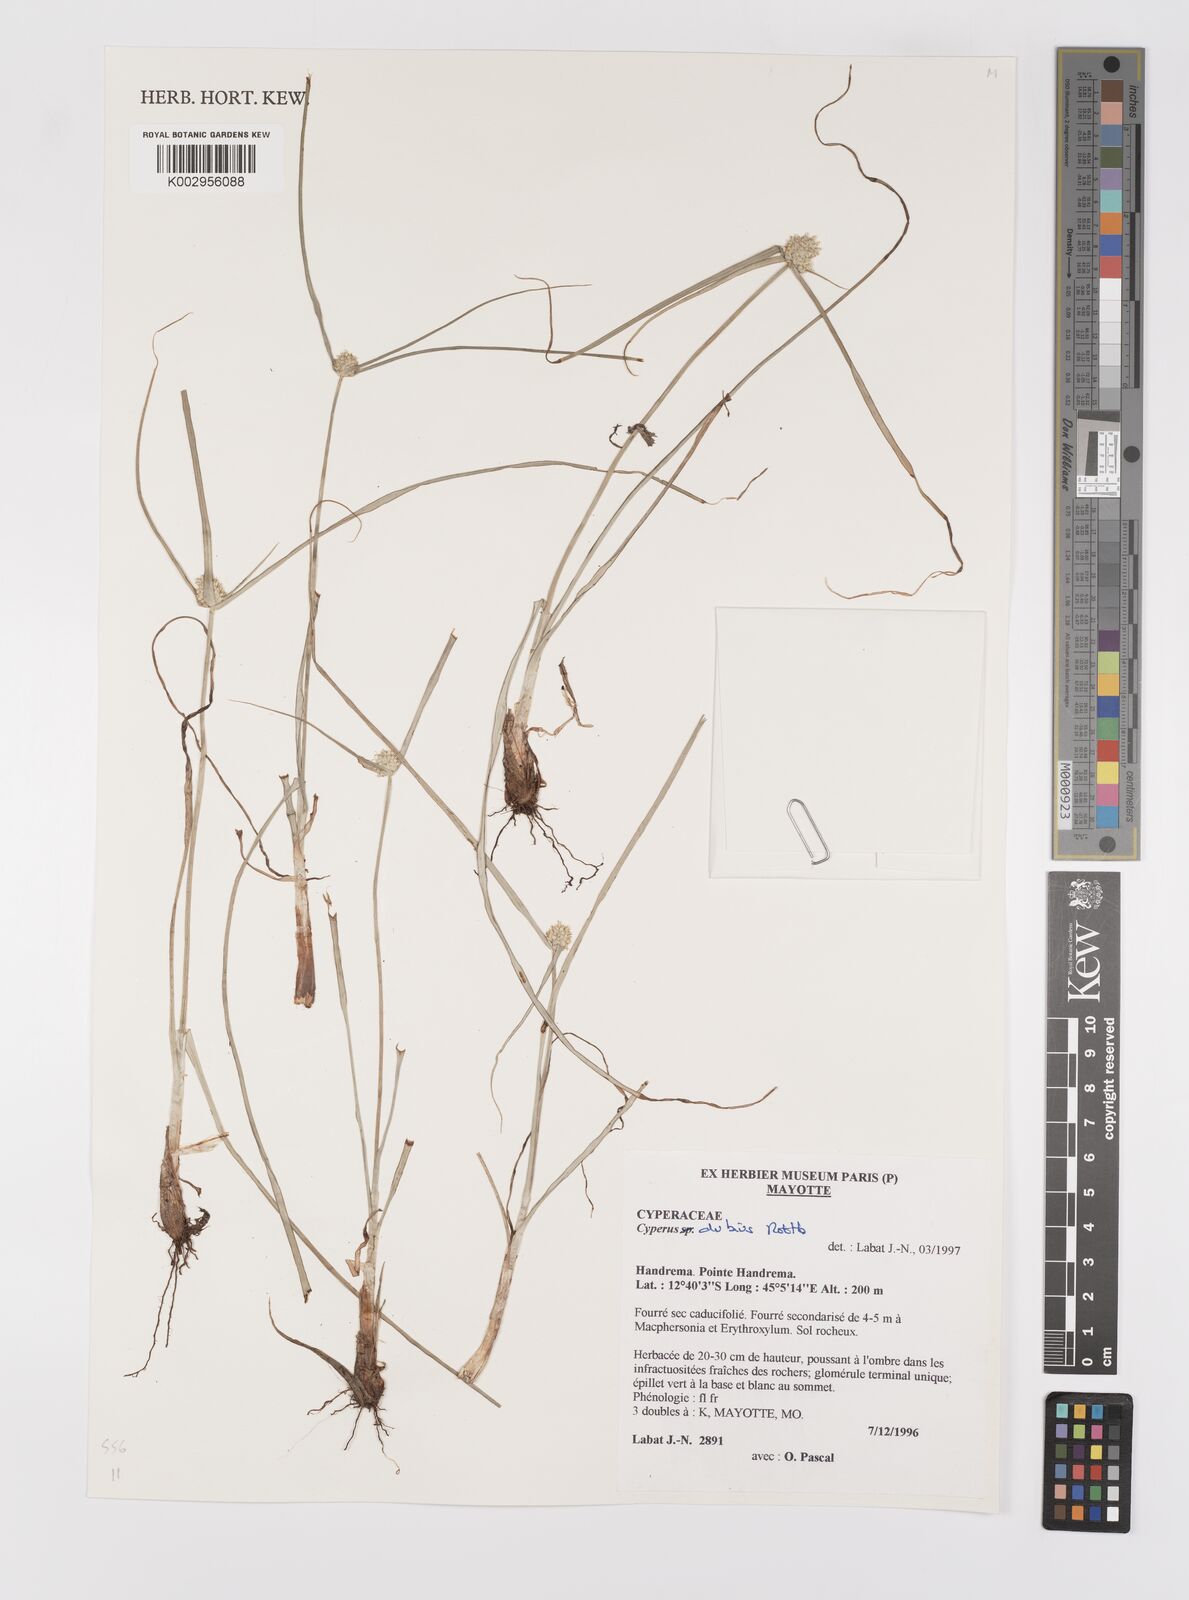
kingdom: Plantae
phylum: Tracheophyta
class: Liliopsida
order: Poales
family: Cyperaceae
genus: Cyperus
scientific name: Cyperus dubius
